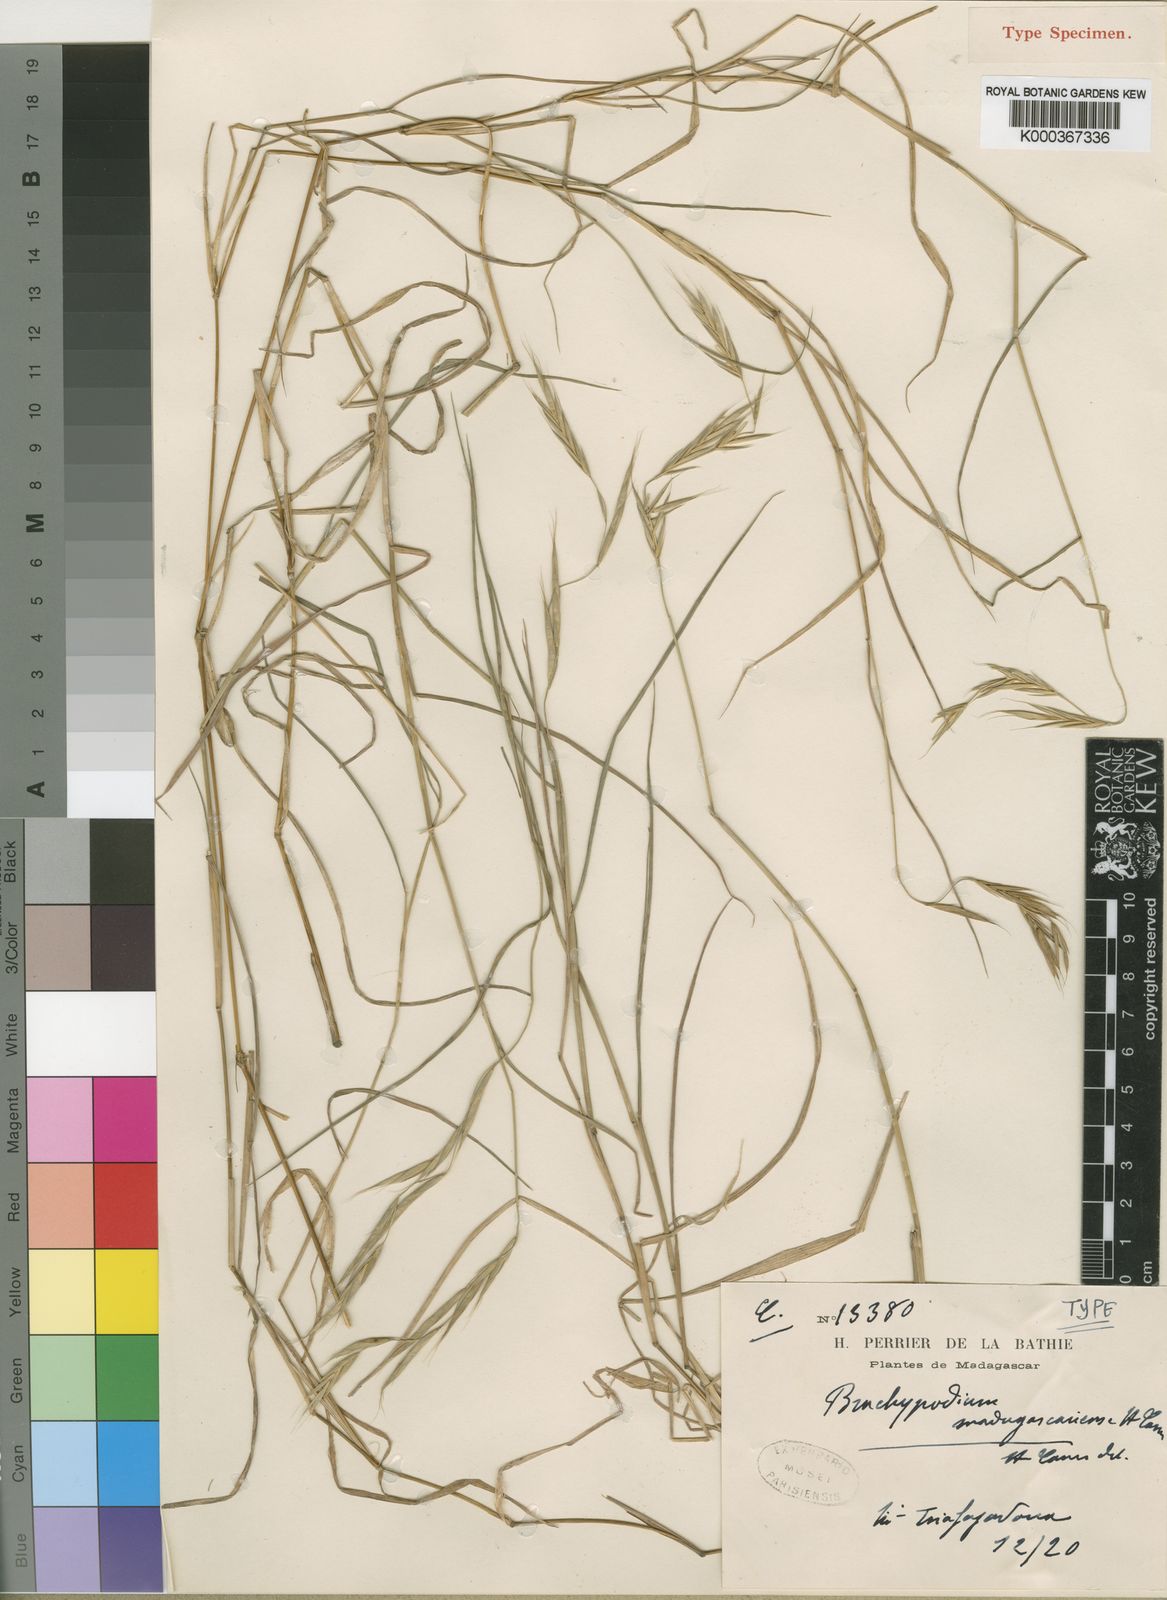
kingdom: Plantae
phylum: Tracheophyta
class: Liliopsida
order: Poales
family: Poaceae
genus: Brachypodium
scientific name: Brachypodium madagascariense
